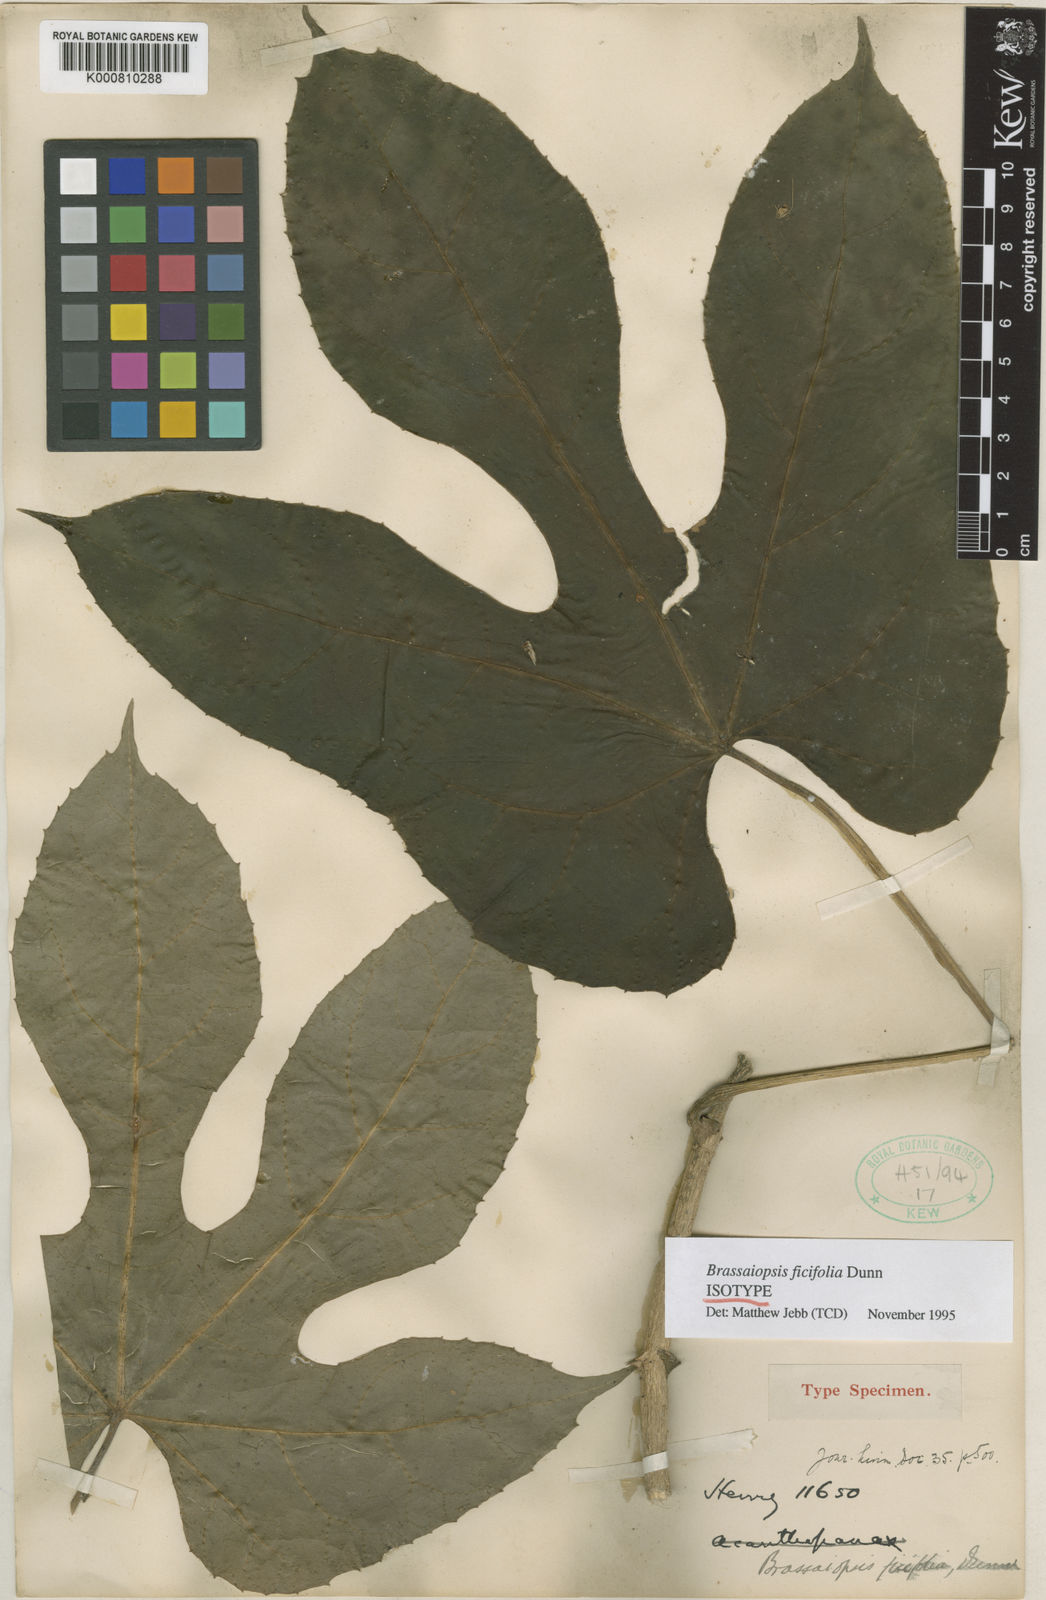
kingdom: Plantae
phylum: Tracheophyta
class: Magnoliopsida
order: Apiales
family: Araliaceae
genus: Brassaiopsis
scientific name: Brassaiopsis ficifolia
